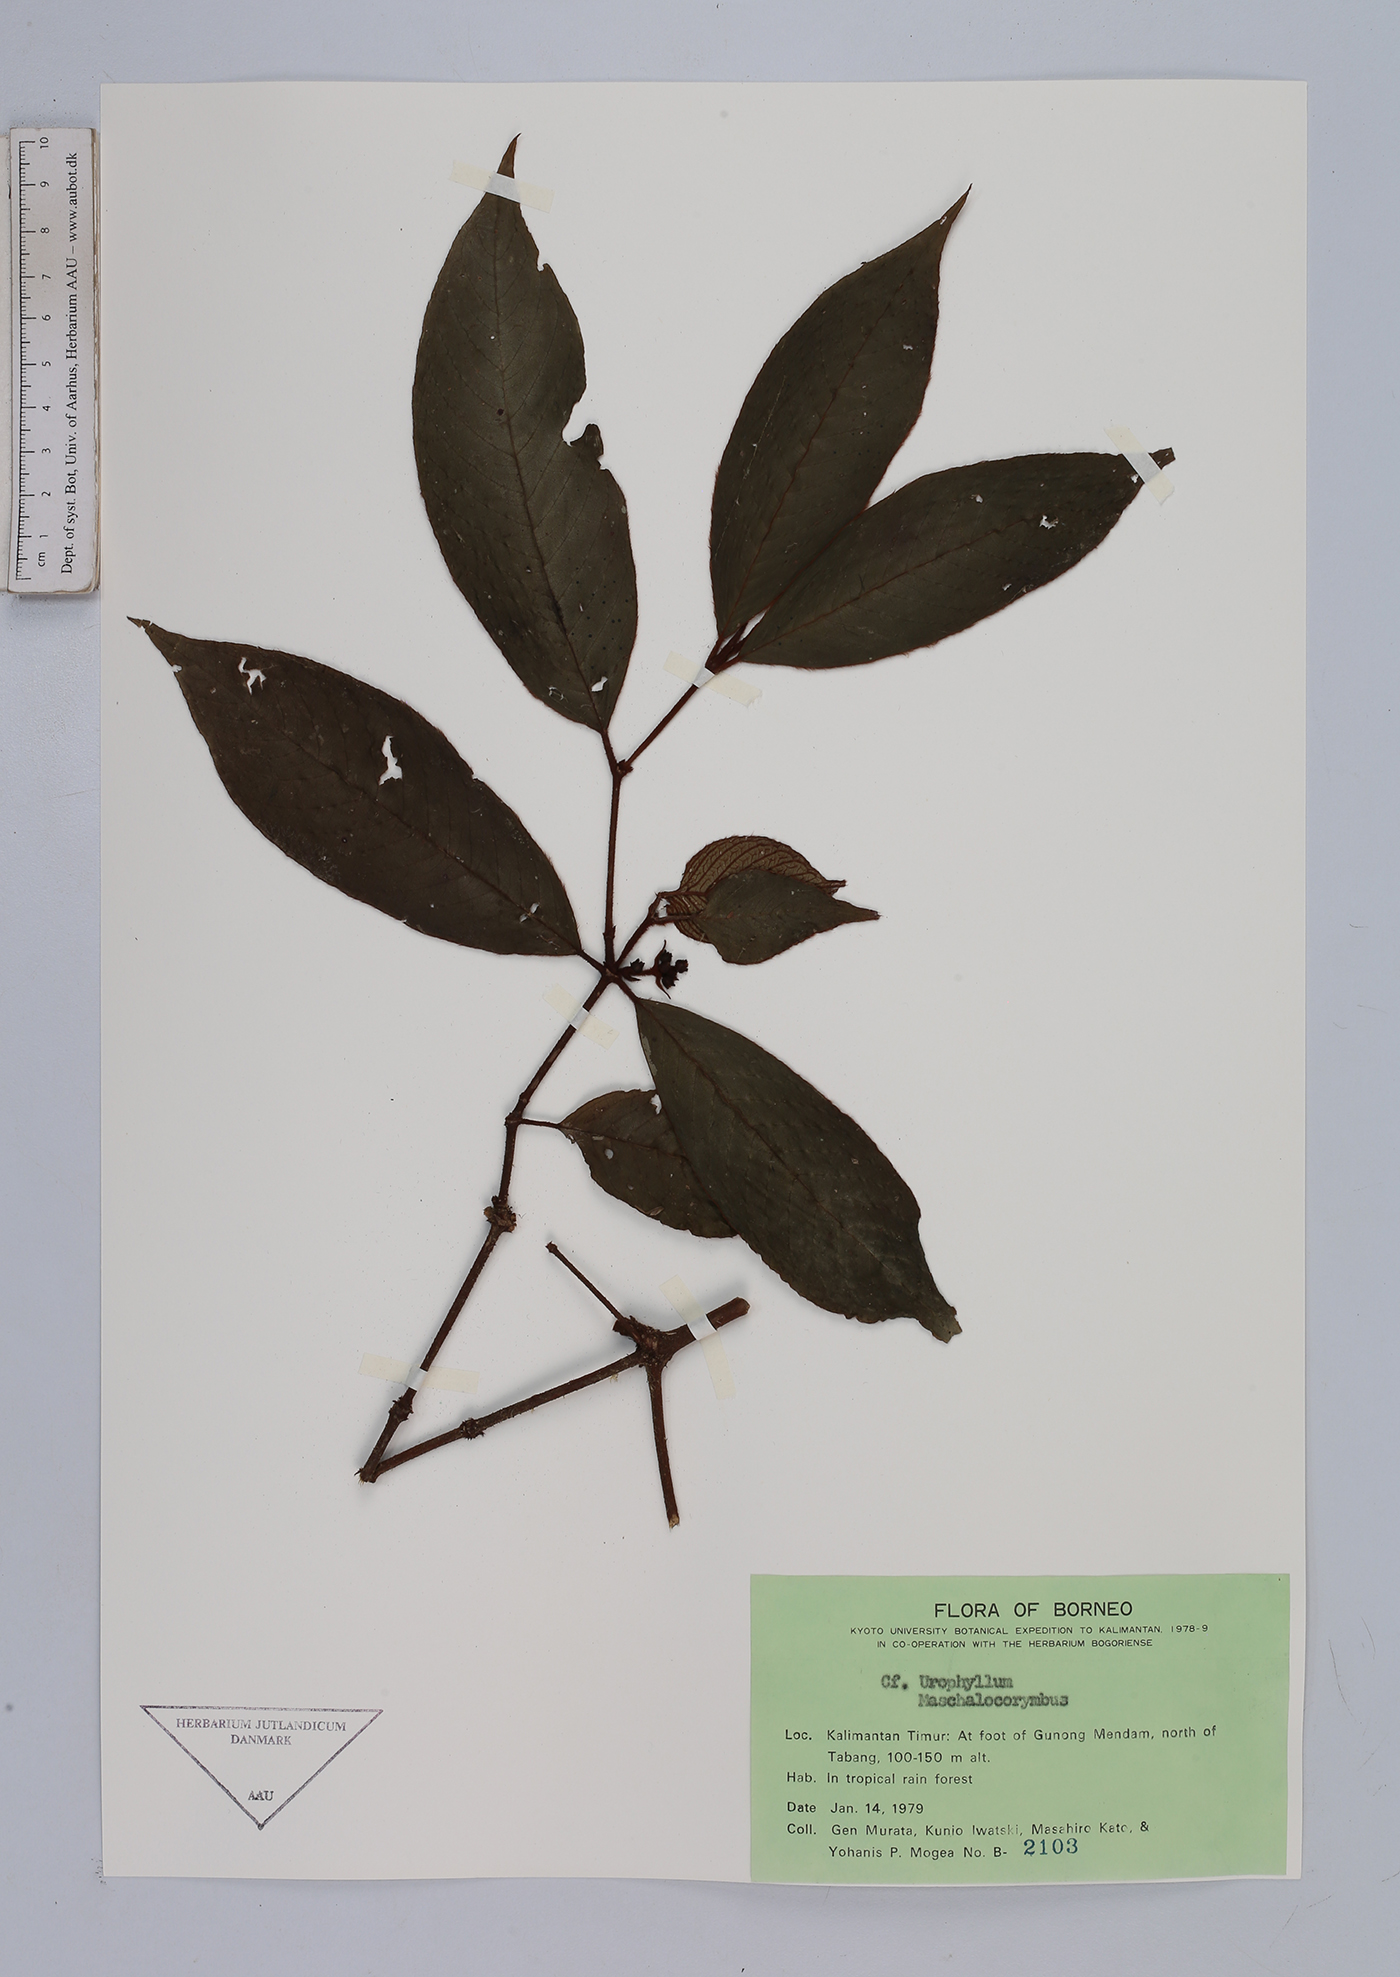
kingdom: Plantae
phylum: Tracheophyta
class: Magnoliopsida
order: Gentianales
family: Rubiaceae
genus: Urophyllum
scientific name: Urophyllum
